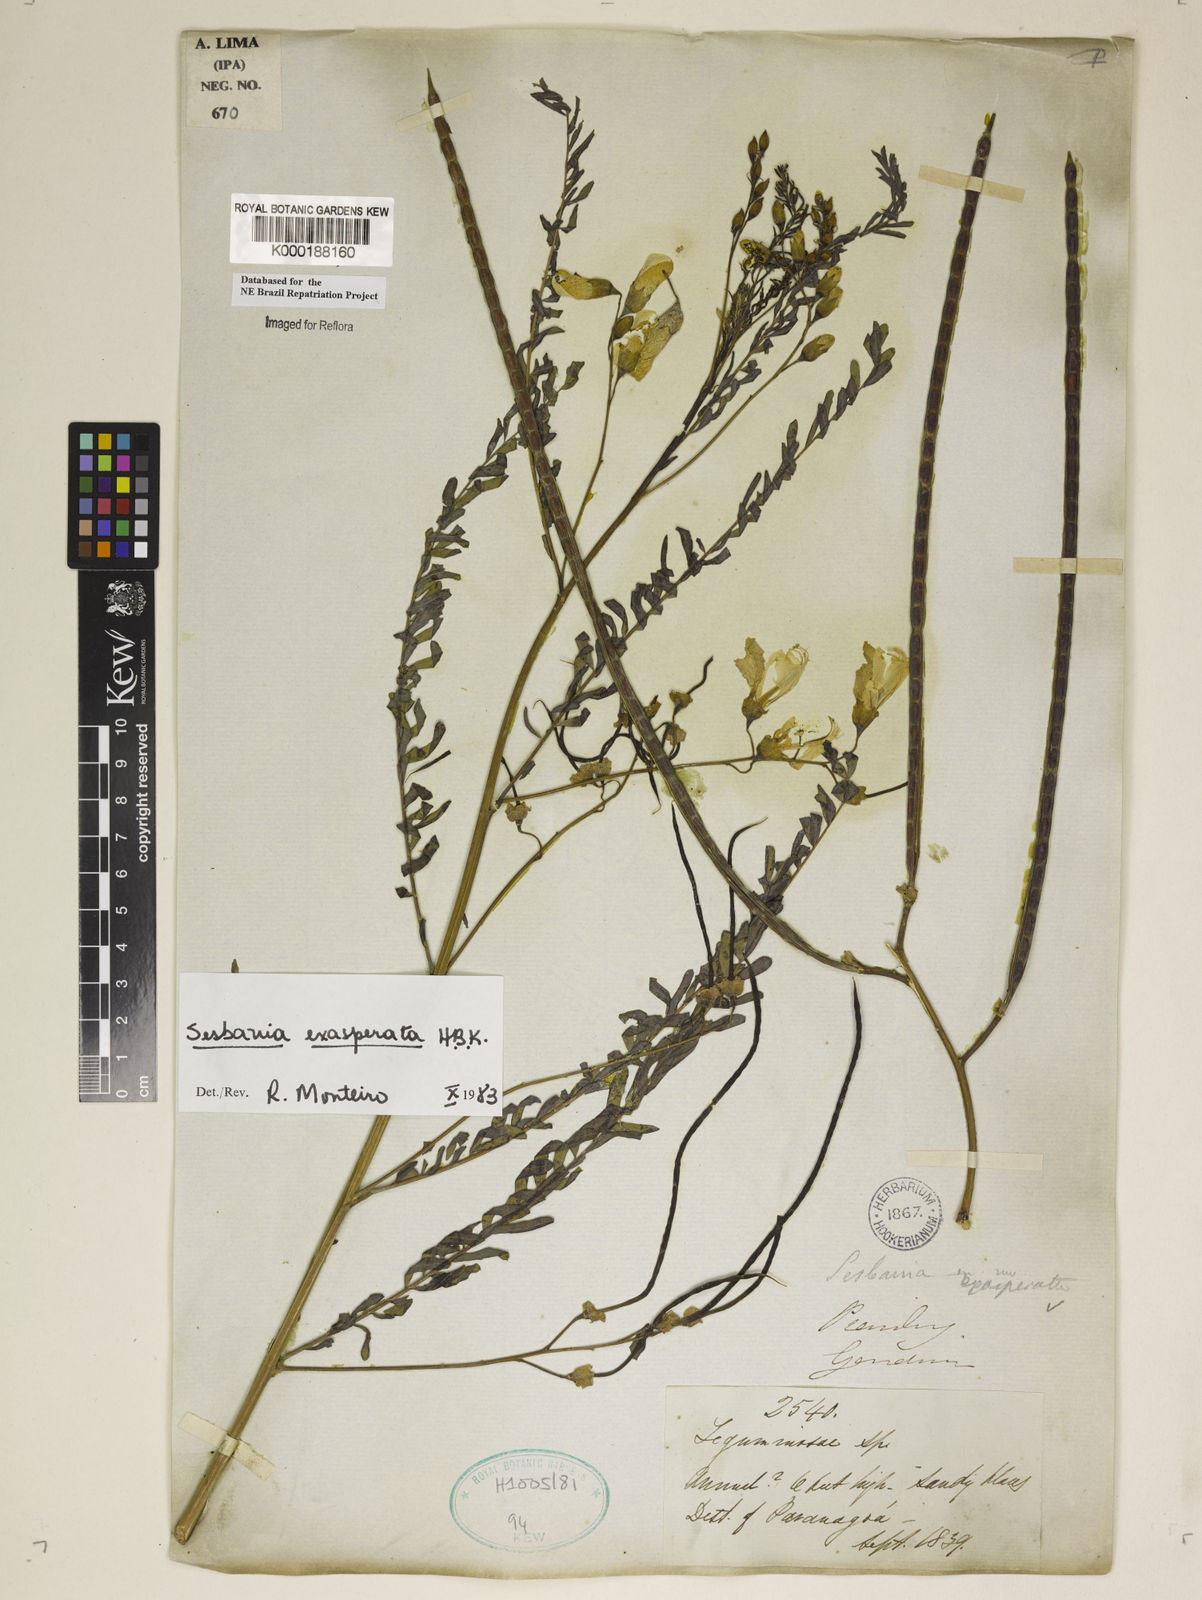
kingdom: Plantae
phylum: Tracheophyta
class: Magnoliopsida
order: Fabales
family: Fabaceae
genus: Sesbania
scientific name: Sesbania exasperata
